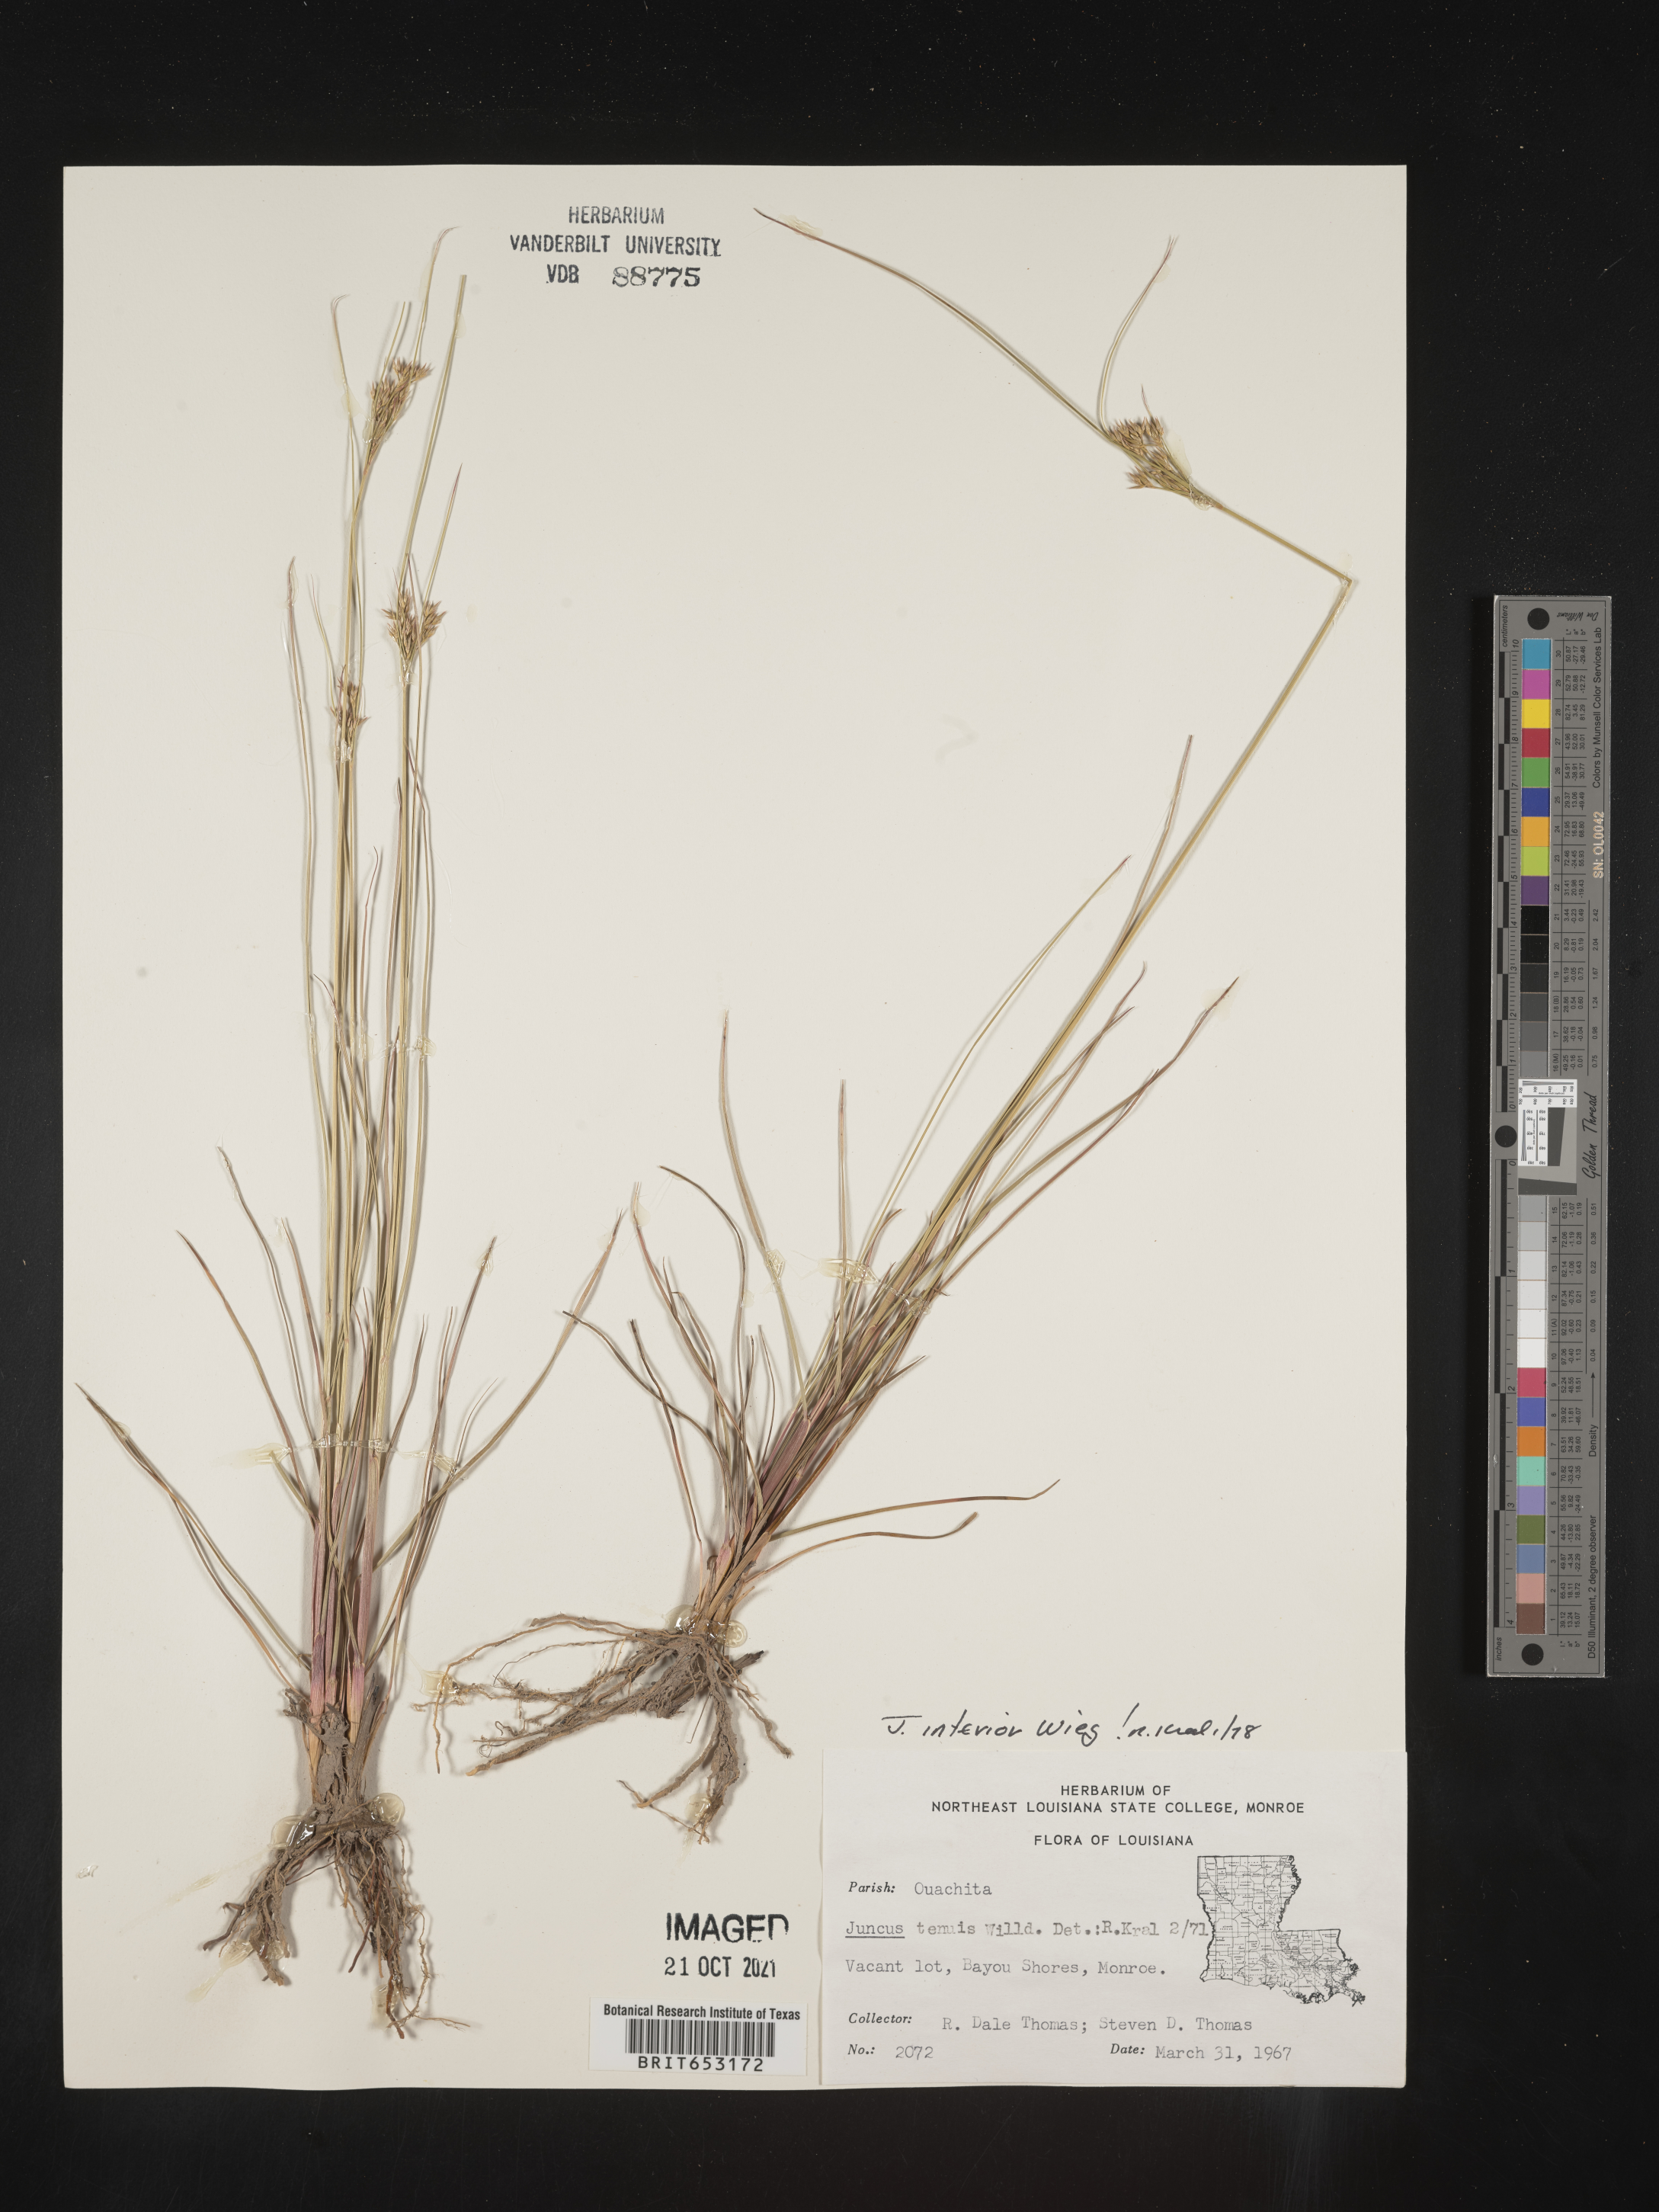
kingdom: Plantae
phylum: Tracheophyta
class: Liliopsida
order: Poales
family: Juncaceae
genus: Juncus
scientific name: Juncus interior
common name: Interior rush
